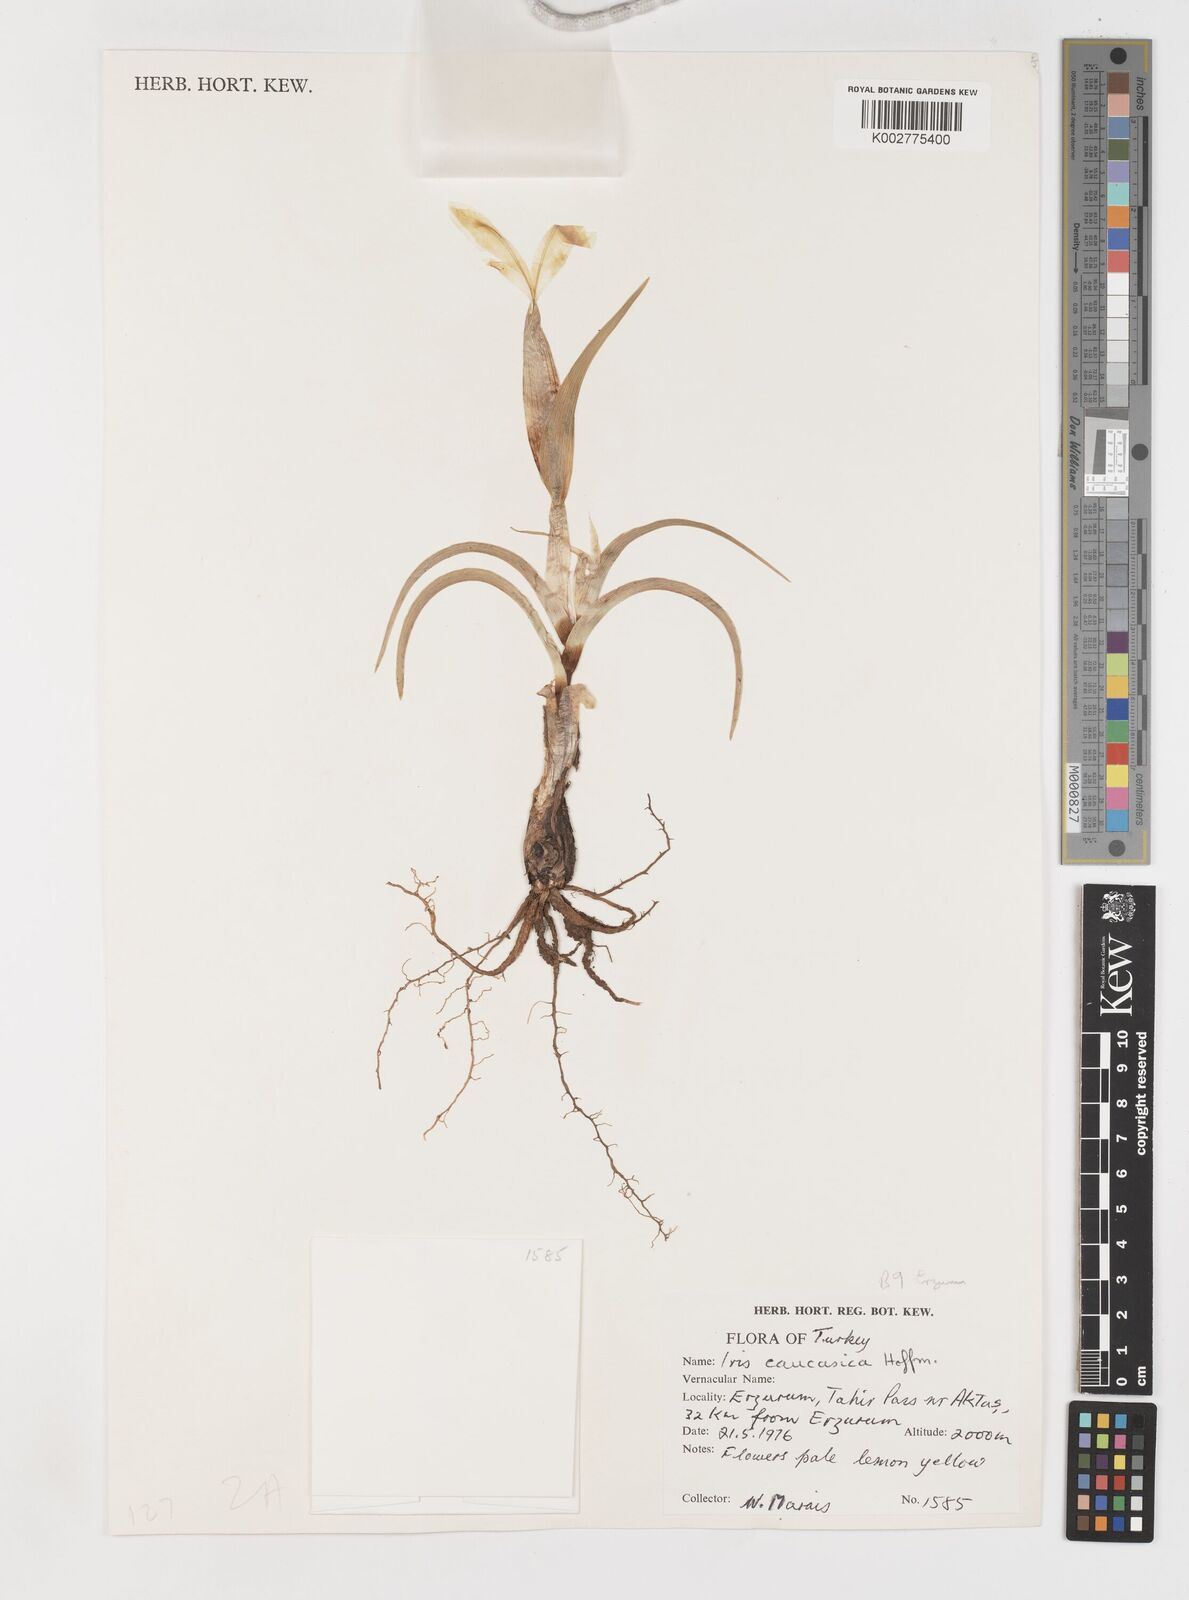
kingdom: Plantae
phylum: Tracheophyta
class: Liliopsida
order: Asparagales
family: Iridaceae
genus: Iris
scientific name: Iris caucasica
